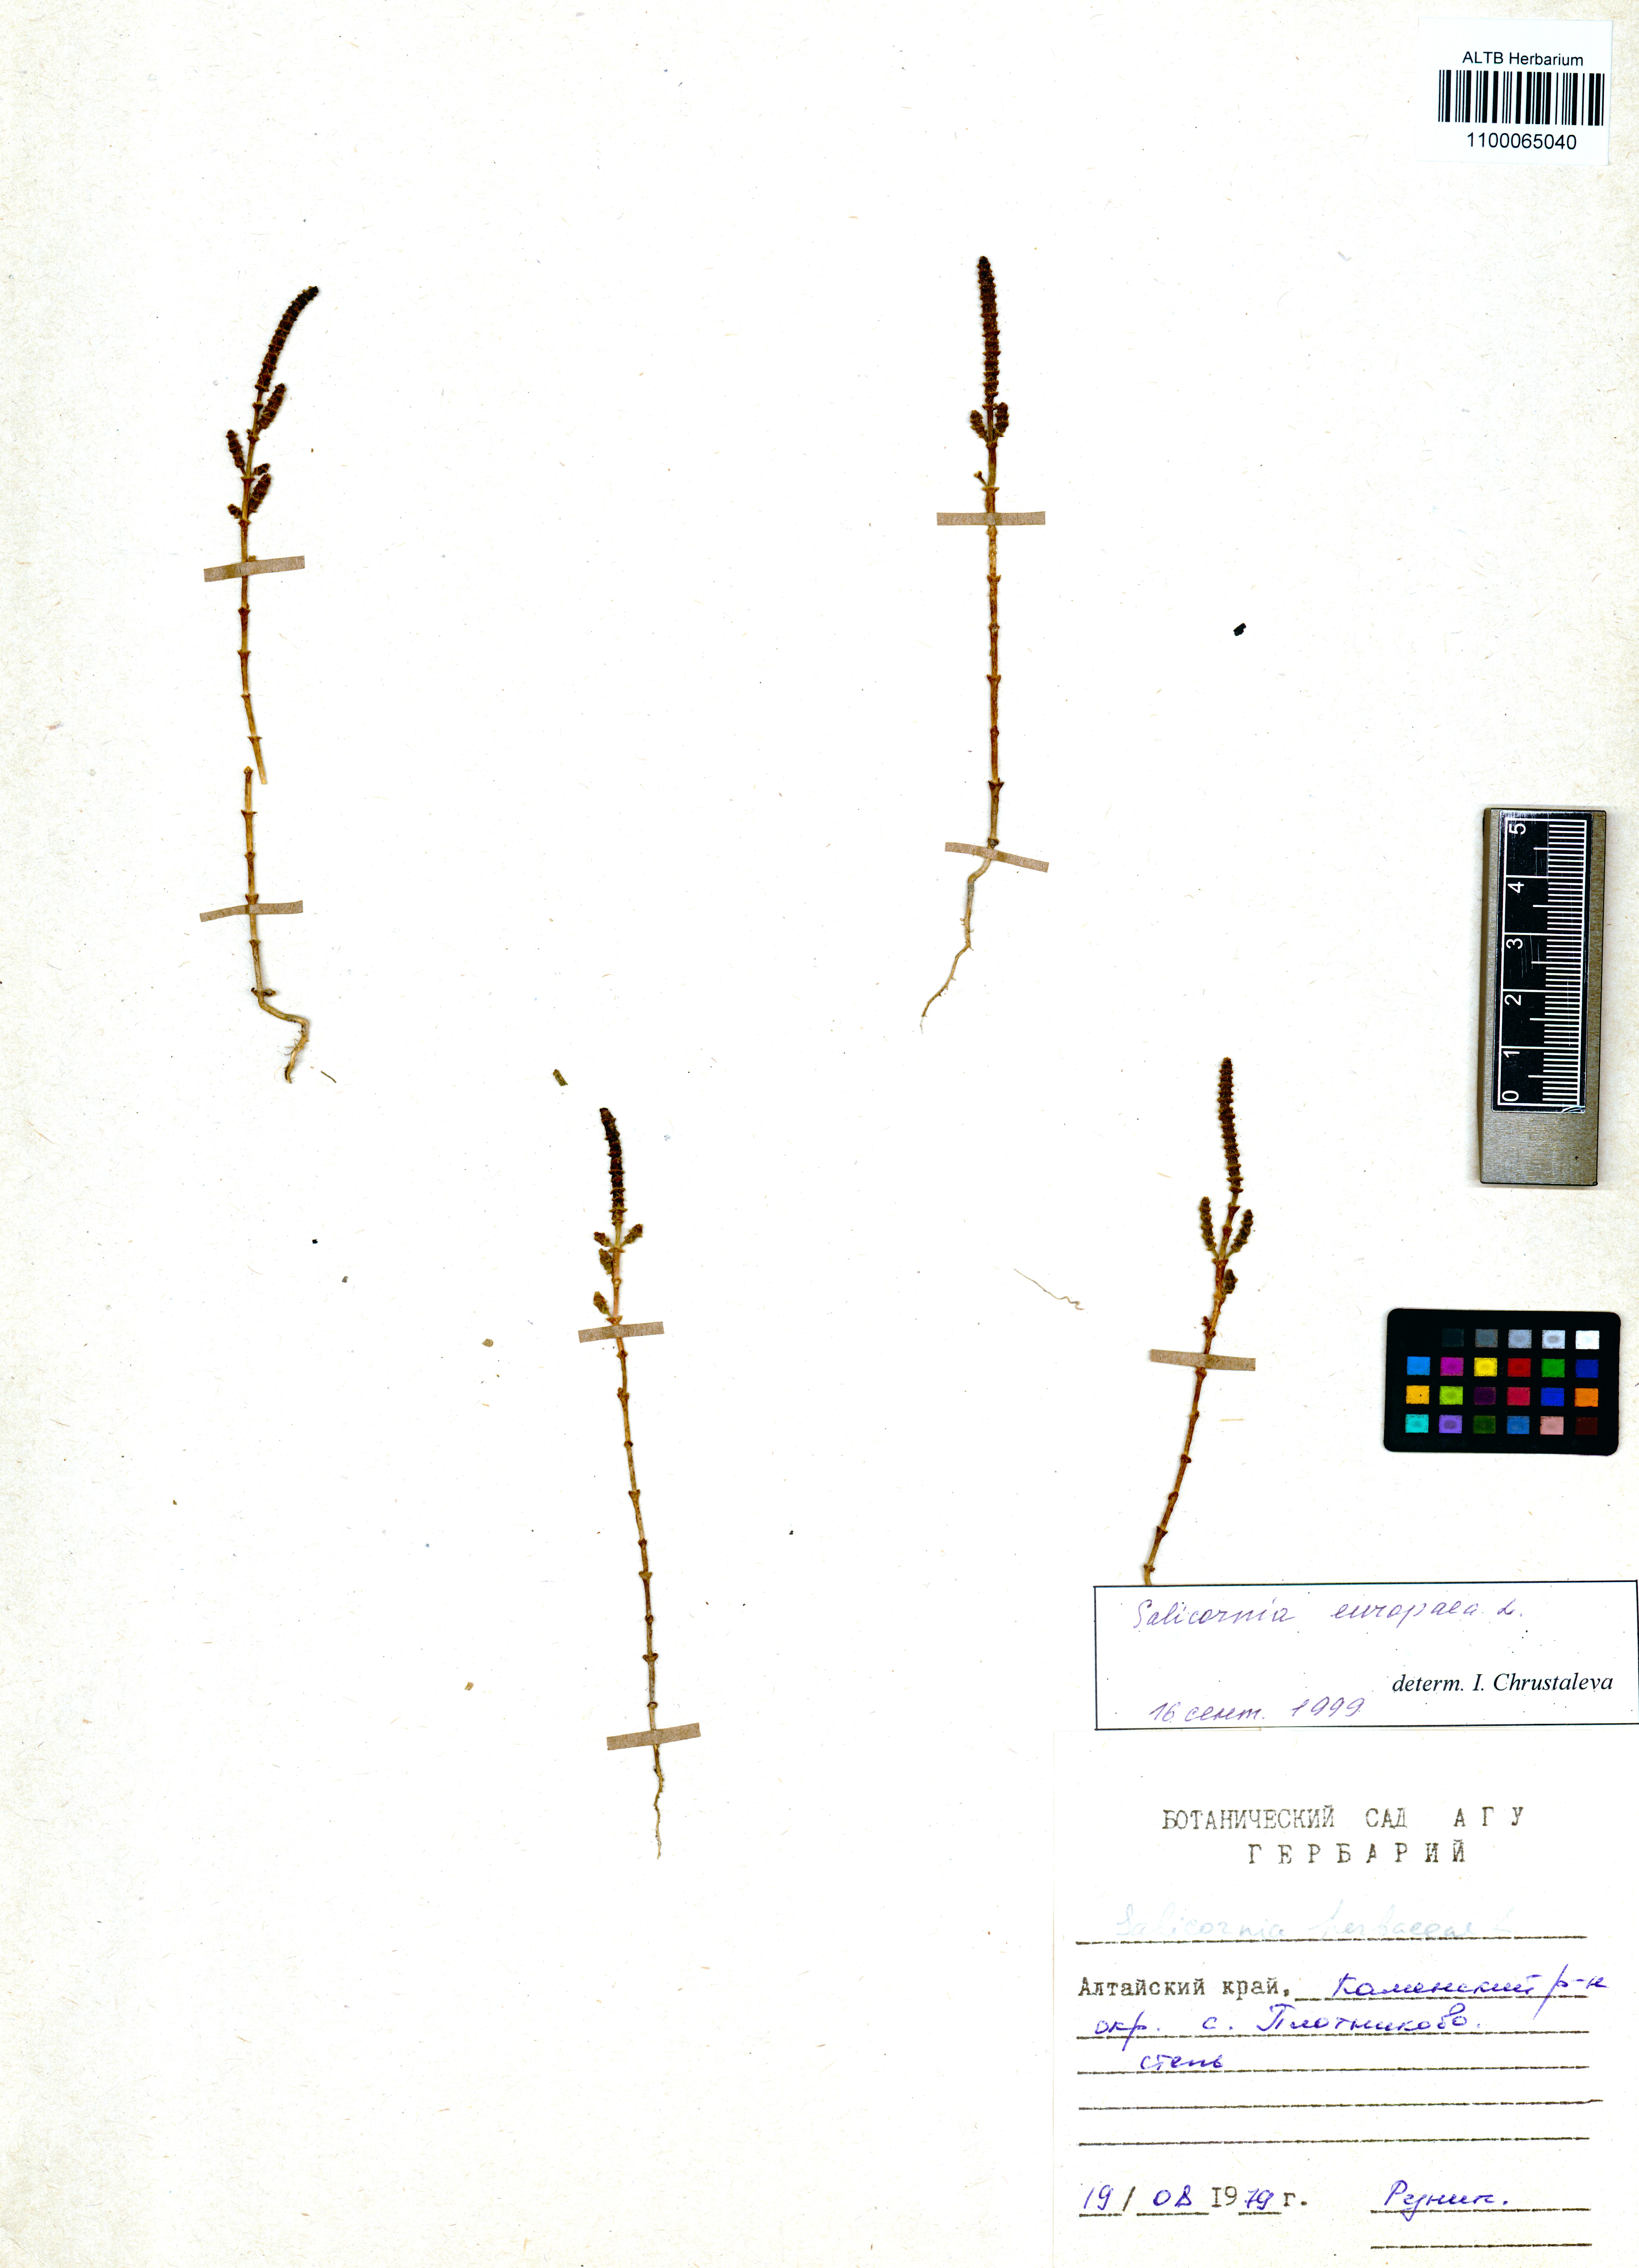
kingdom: Plantae
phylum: Tracheophyta
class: Magnoliopsida
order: Caryophyllales
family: Amaranthaceae
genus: Salicornia
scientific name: Salicornia europaea
